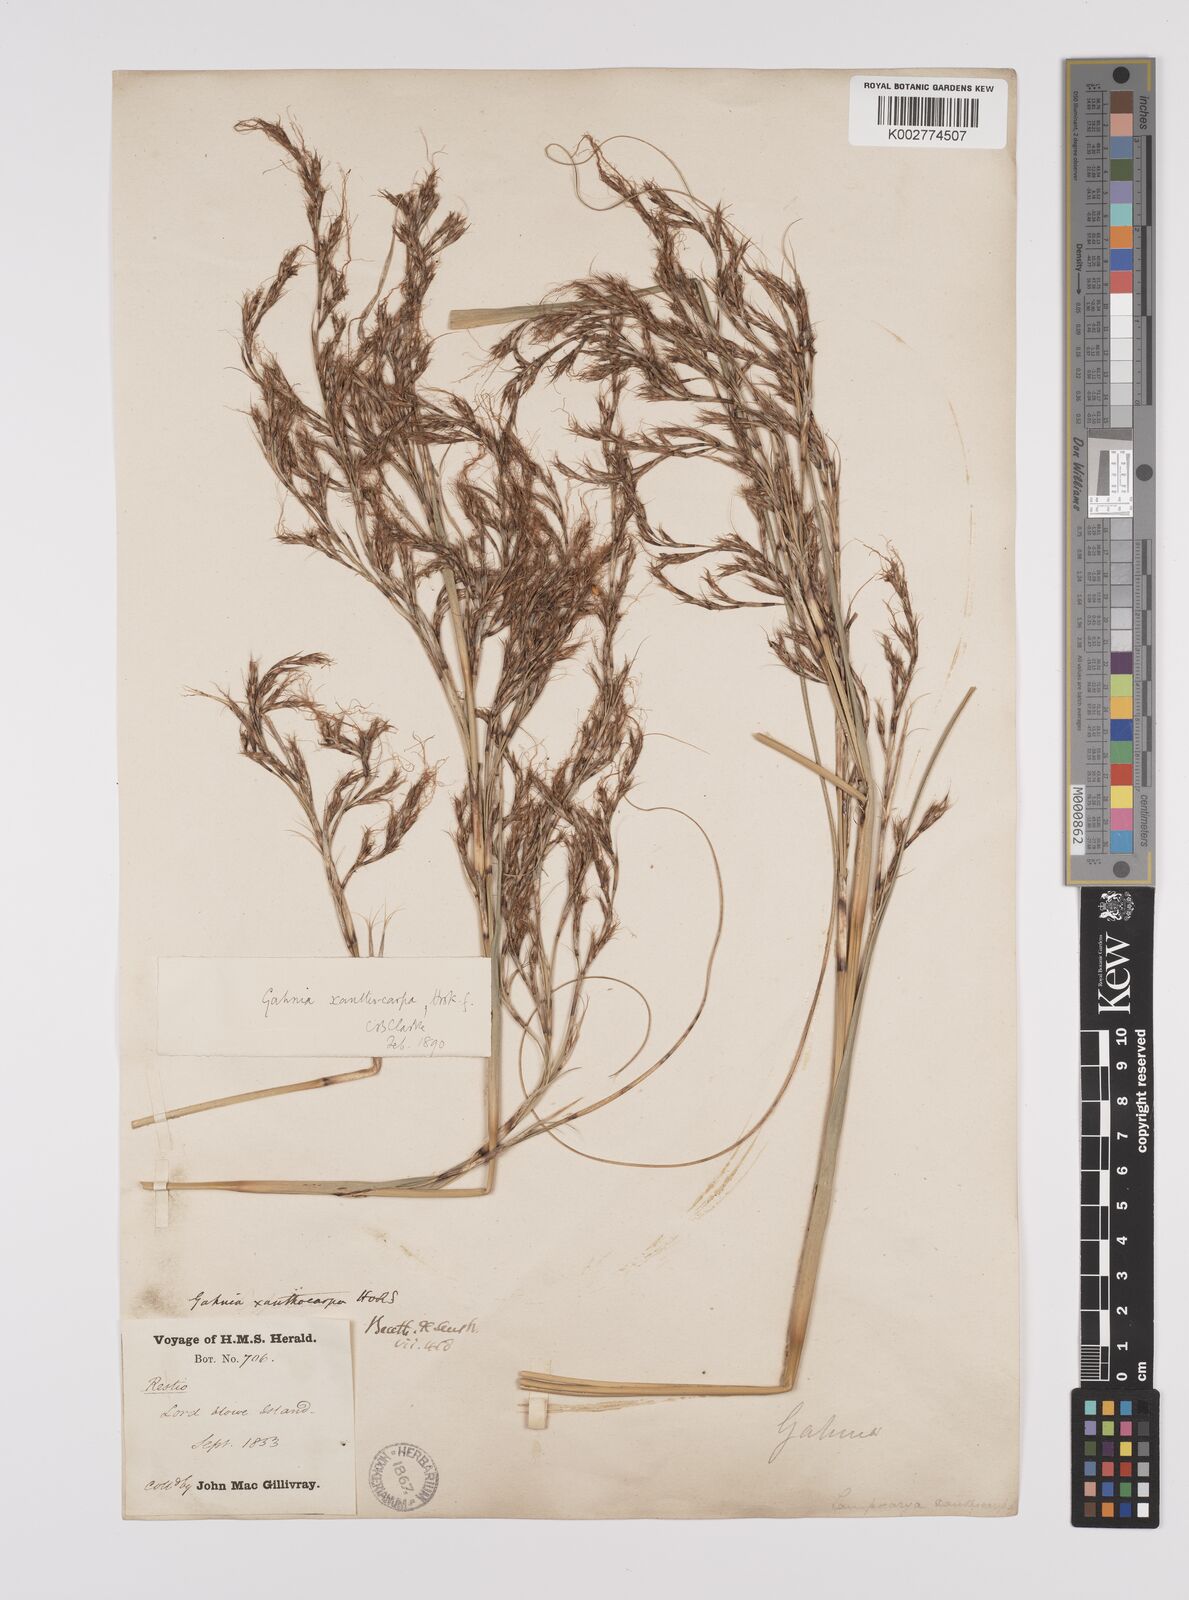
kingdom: Plantae
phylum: Tracheophyta
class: Liliopsida
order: Poales
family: Cyperaceae
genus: Gahnia
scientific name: Gahnia xanthocarpa
